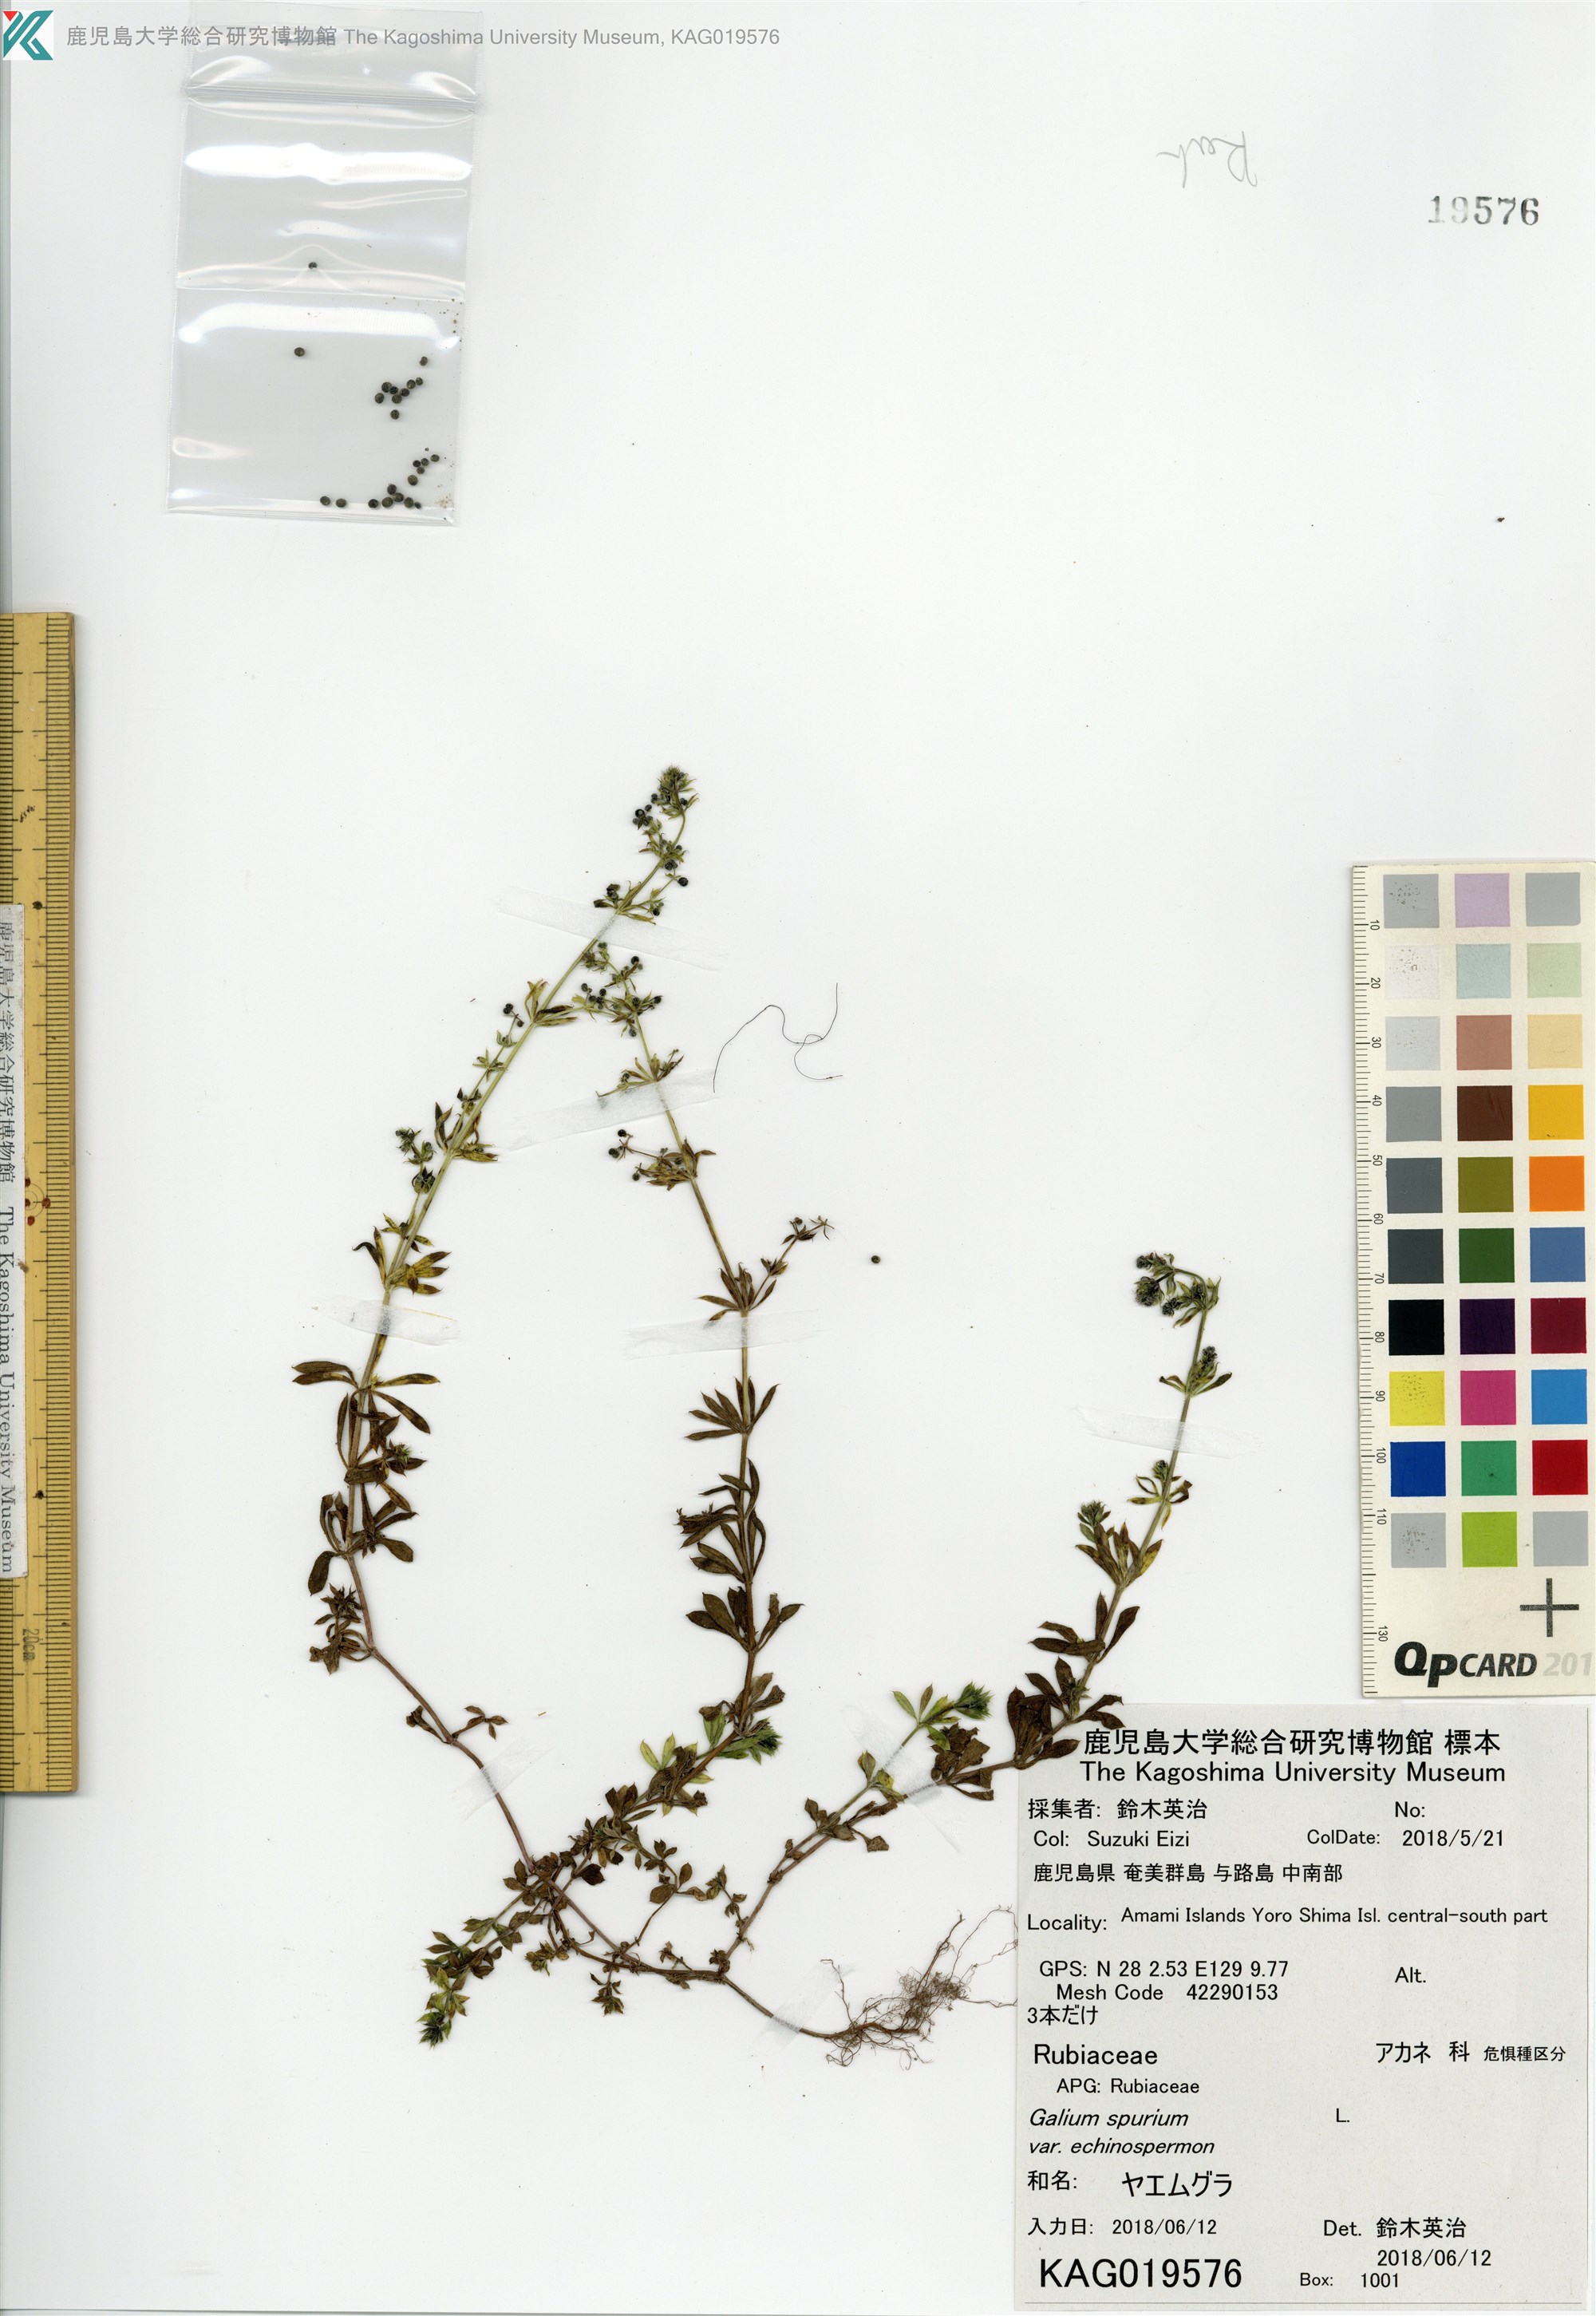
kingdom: Plantae
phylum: Tracheophyta
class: Magnoliopsida
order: Gentianales
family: Rubiaceae
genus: Galium
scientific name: Galium
